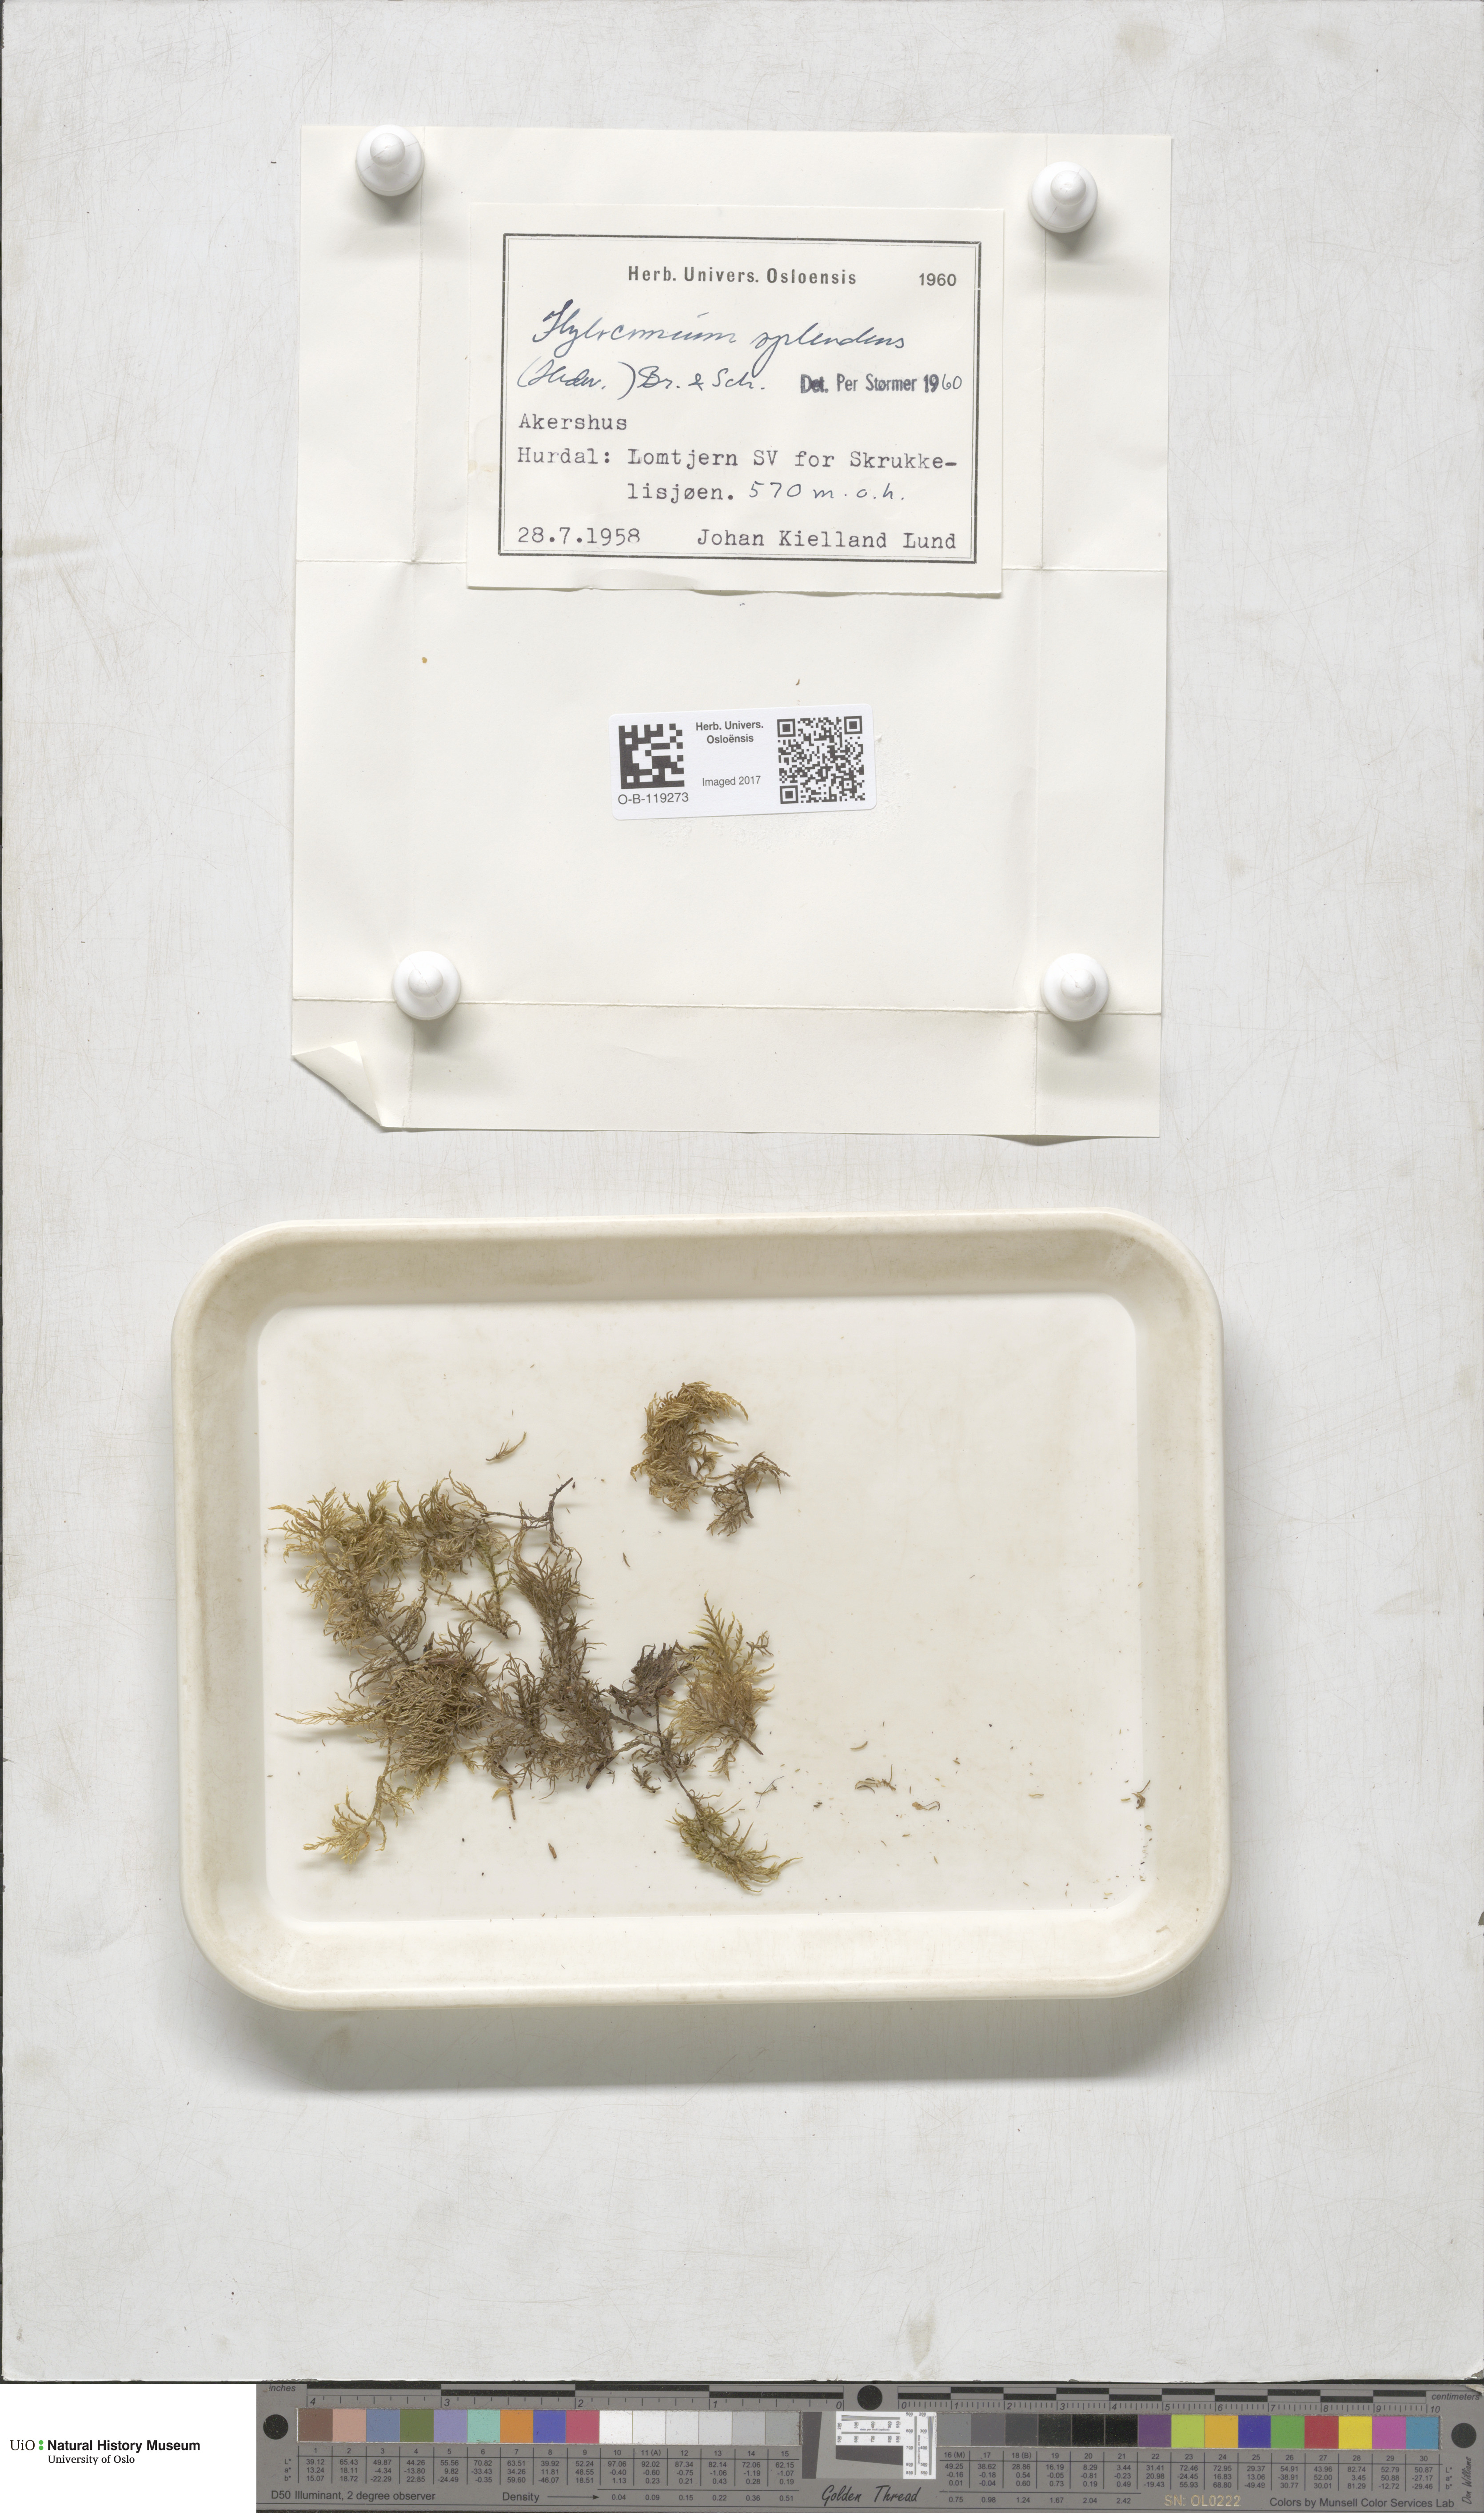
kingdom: Plantae
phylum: Bryophyta
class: Bryopsida
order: Hypnales
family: Hylocomiaceae
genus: Hylocomium
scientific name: Hylocomium splendens
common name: Stairstep moss
